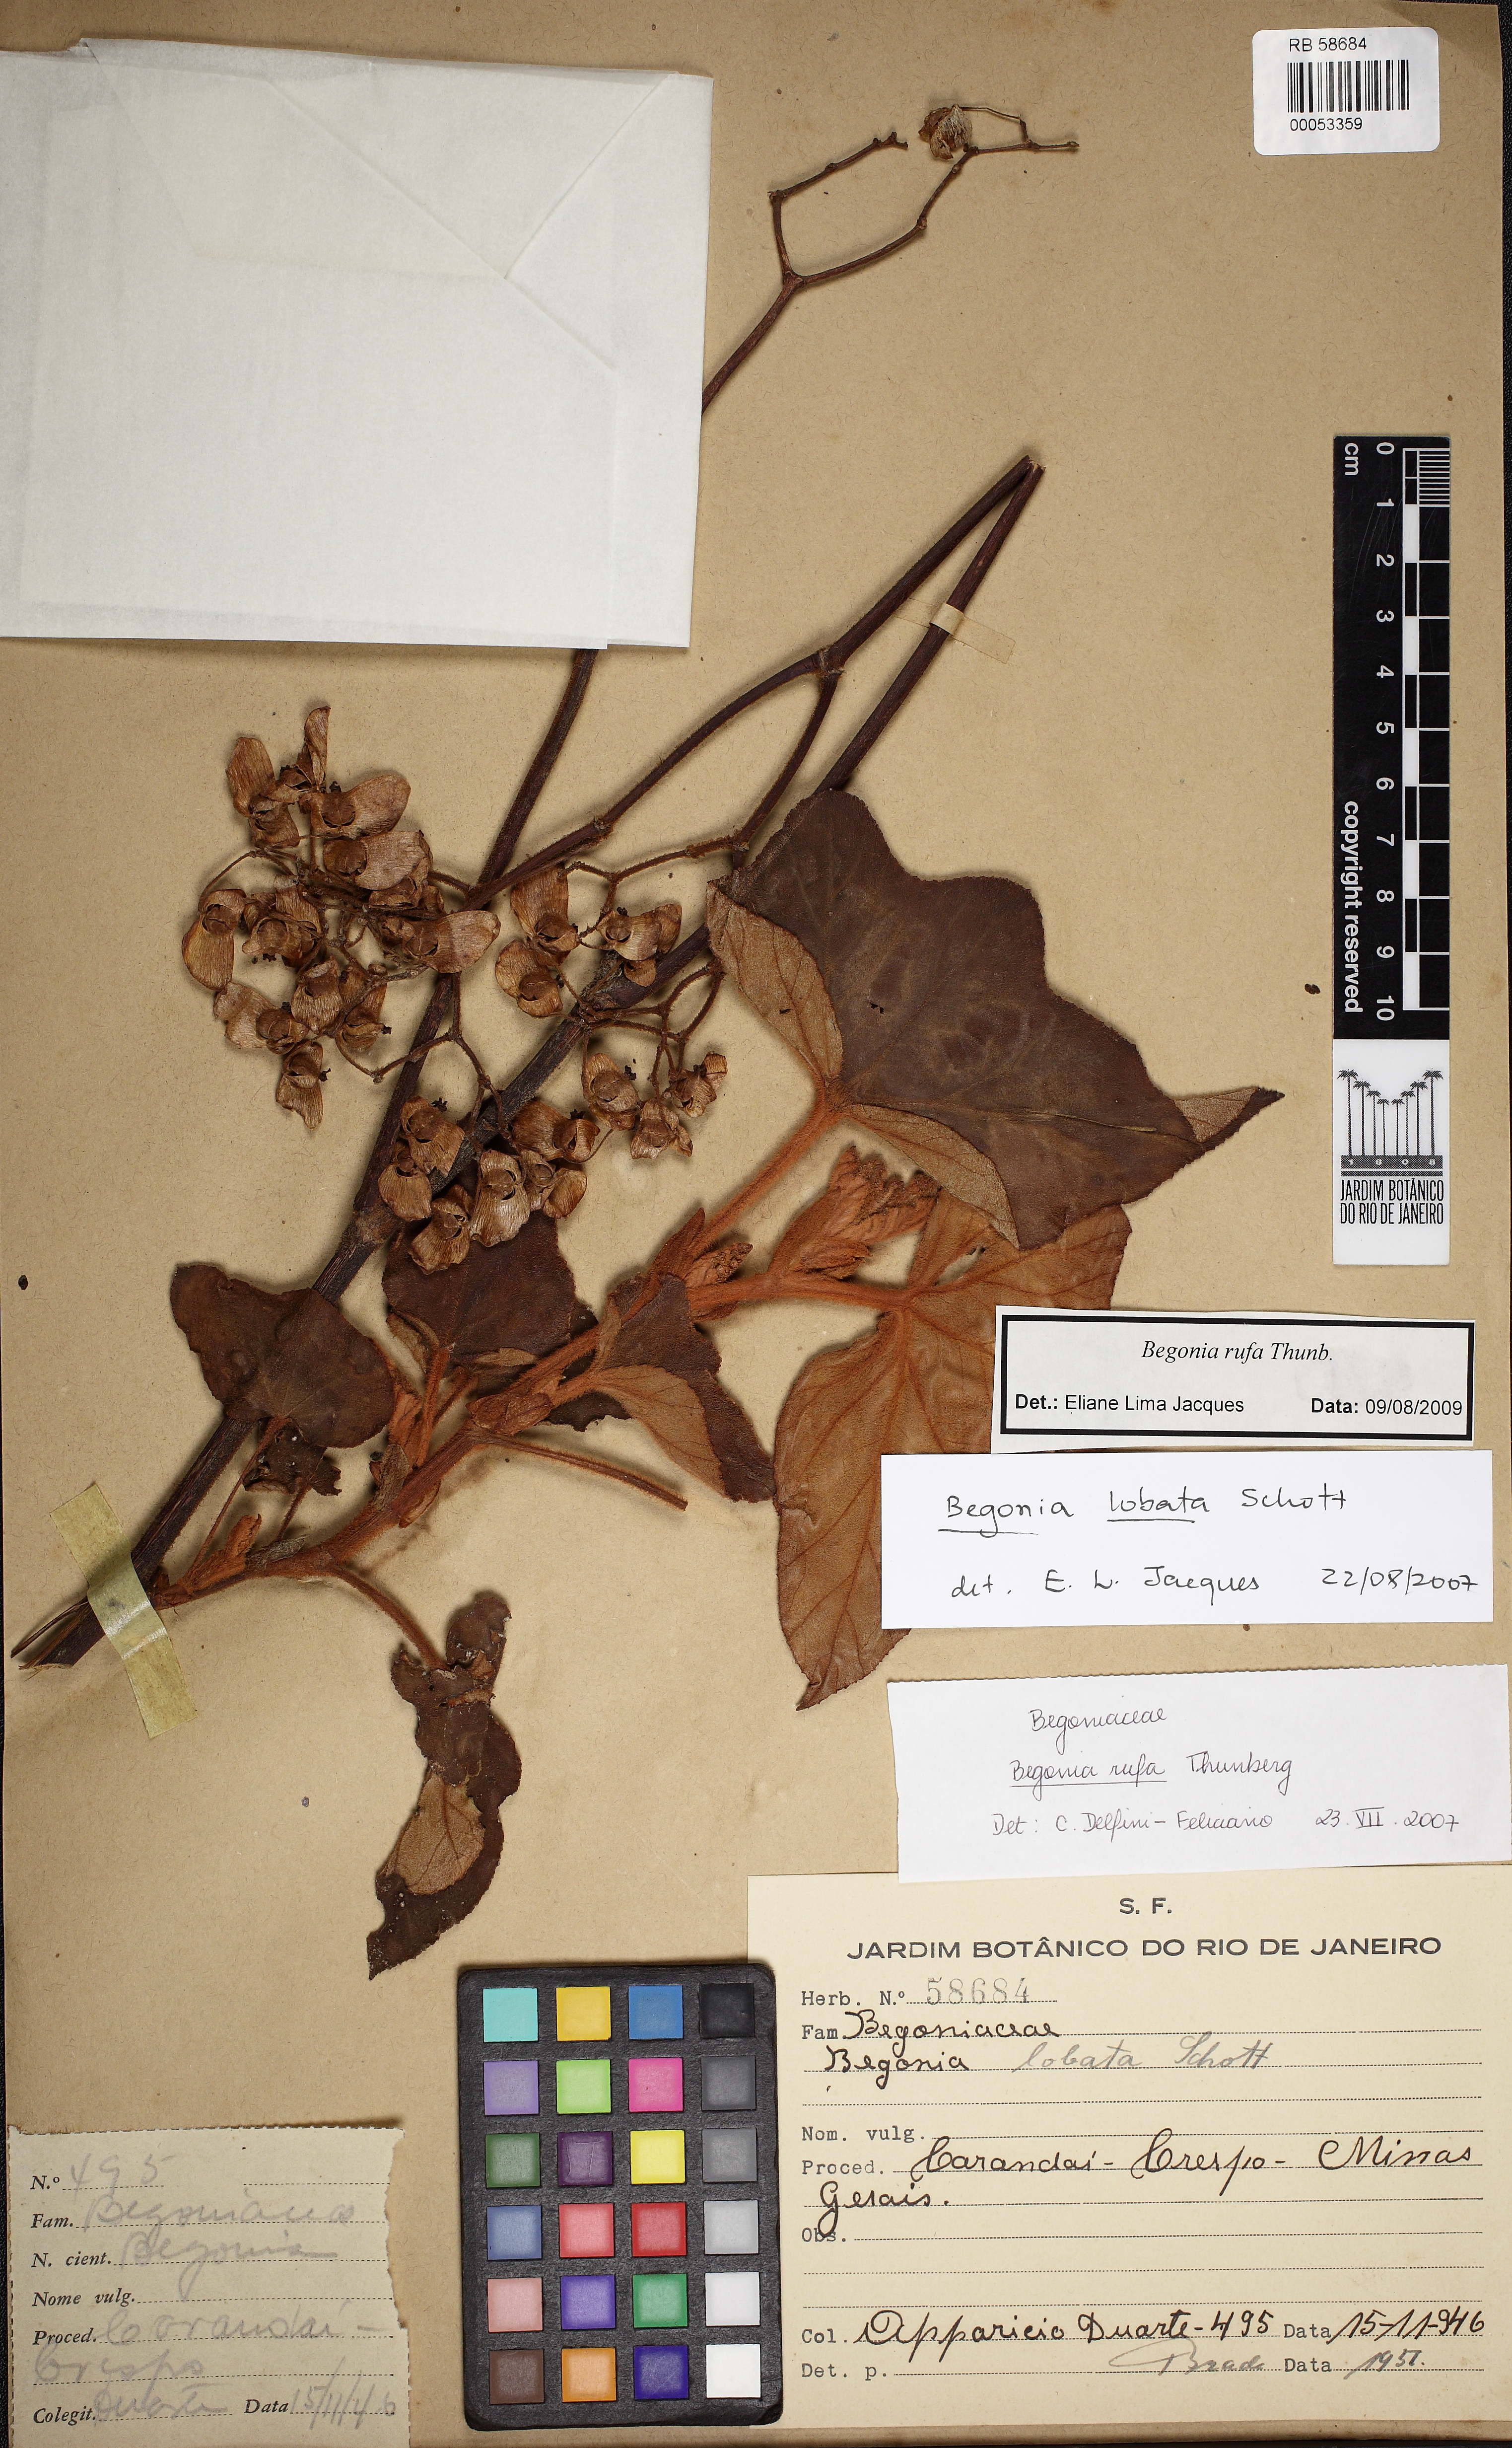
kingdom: Plantae
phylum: Tracheophyta
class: Magnoliopsida
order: Cucurbitales
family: Begoniaceae
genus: Begonia
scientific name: Begonia rufa
